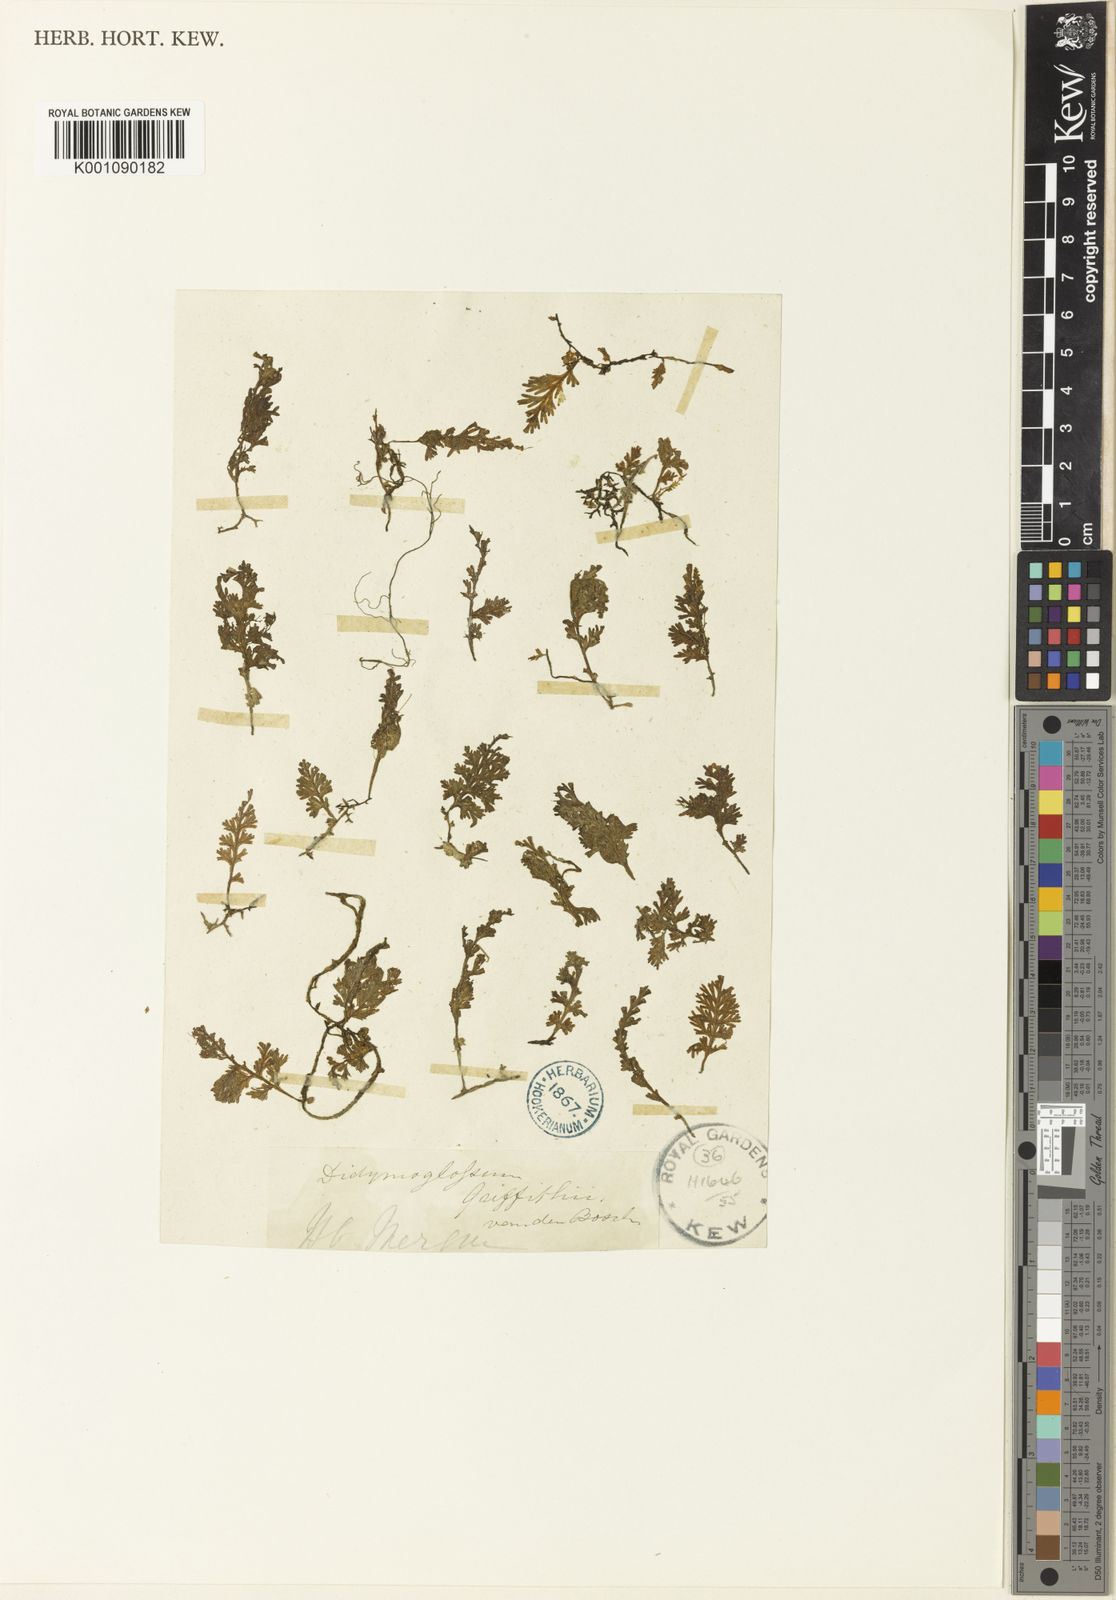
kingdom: Plantae
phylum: Tracheophyta
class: Polypodiopsida
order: Hymenophyllales
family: Hymenophyllaceae
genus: Trichomanes
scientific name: Trichomanes
